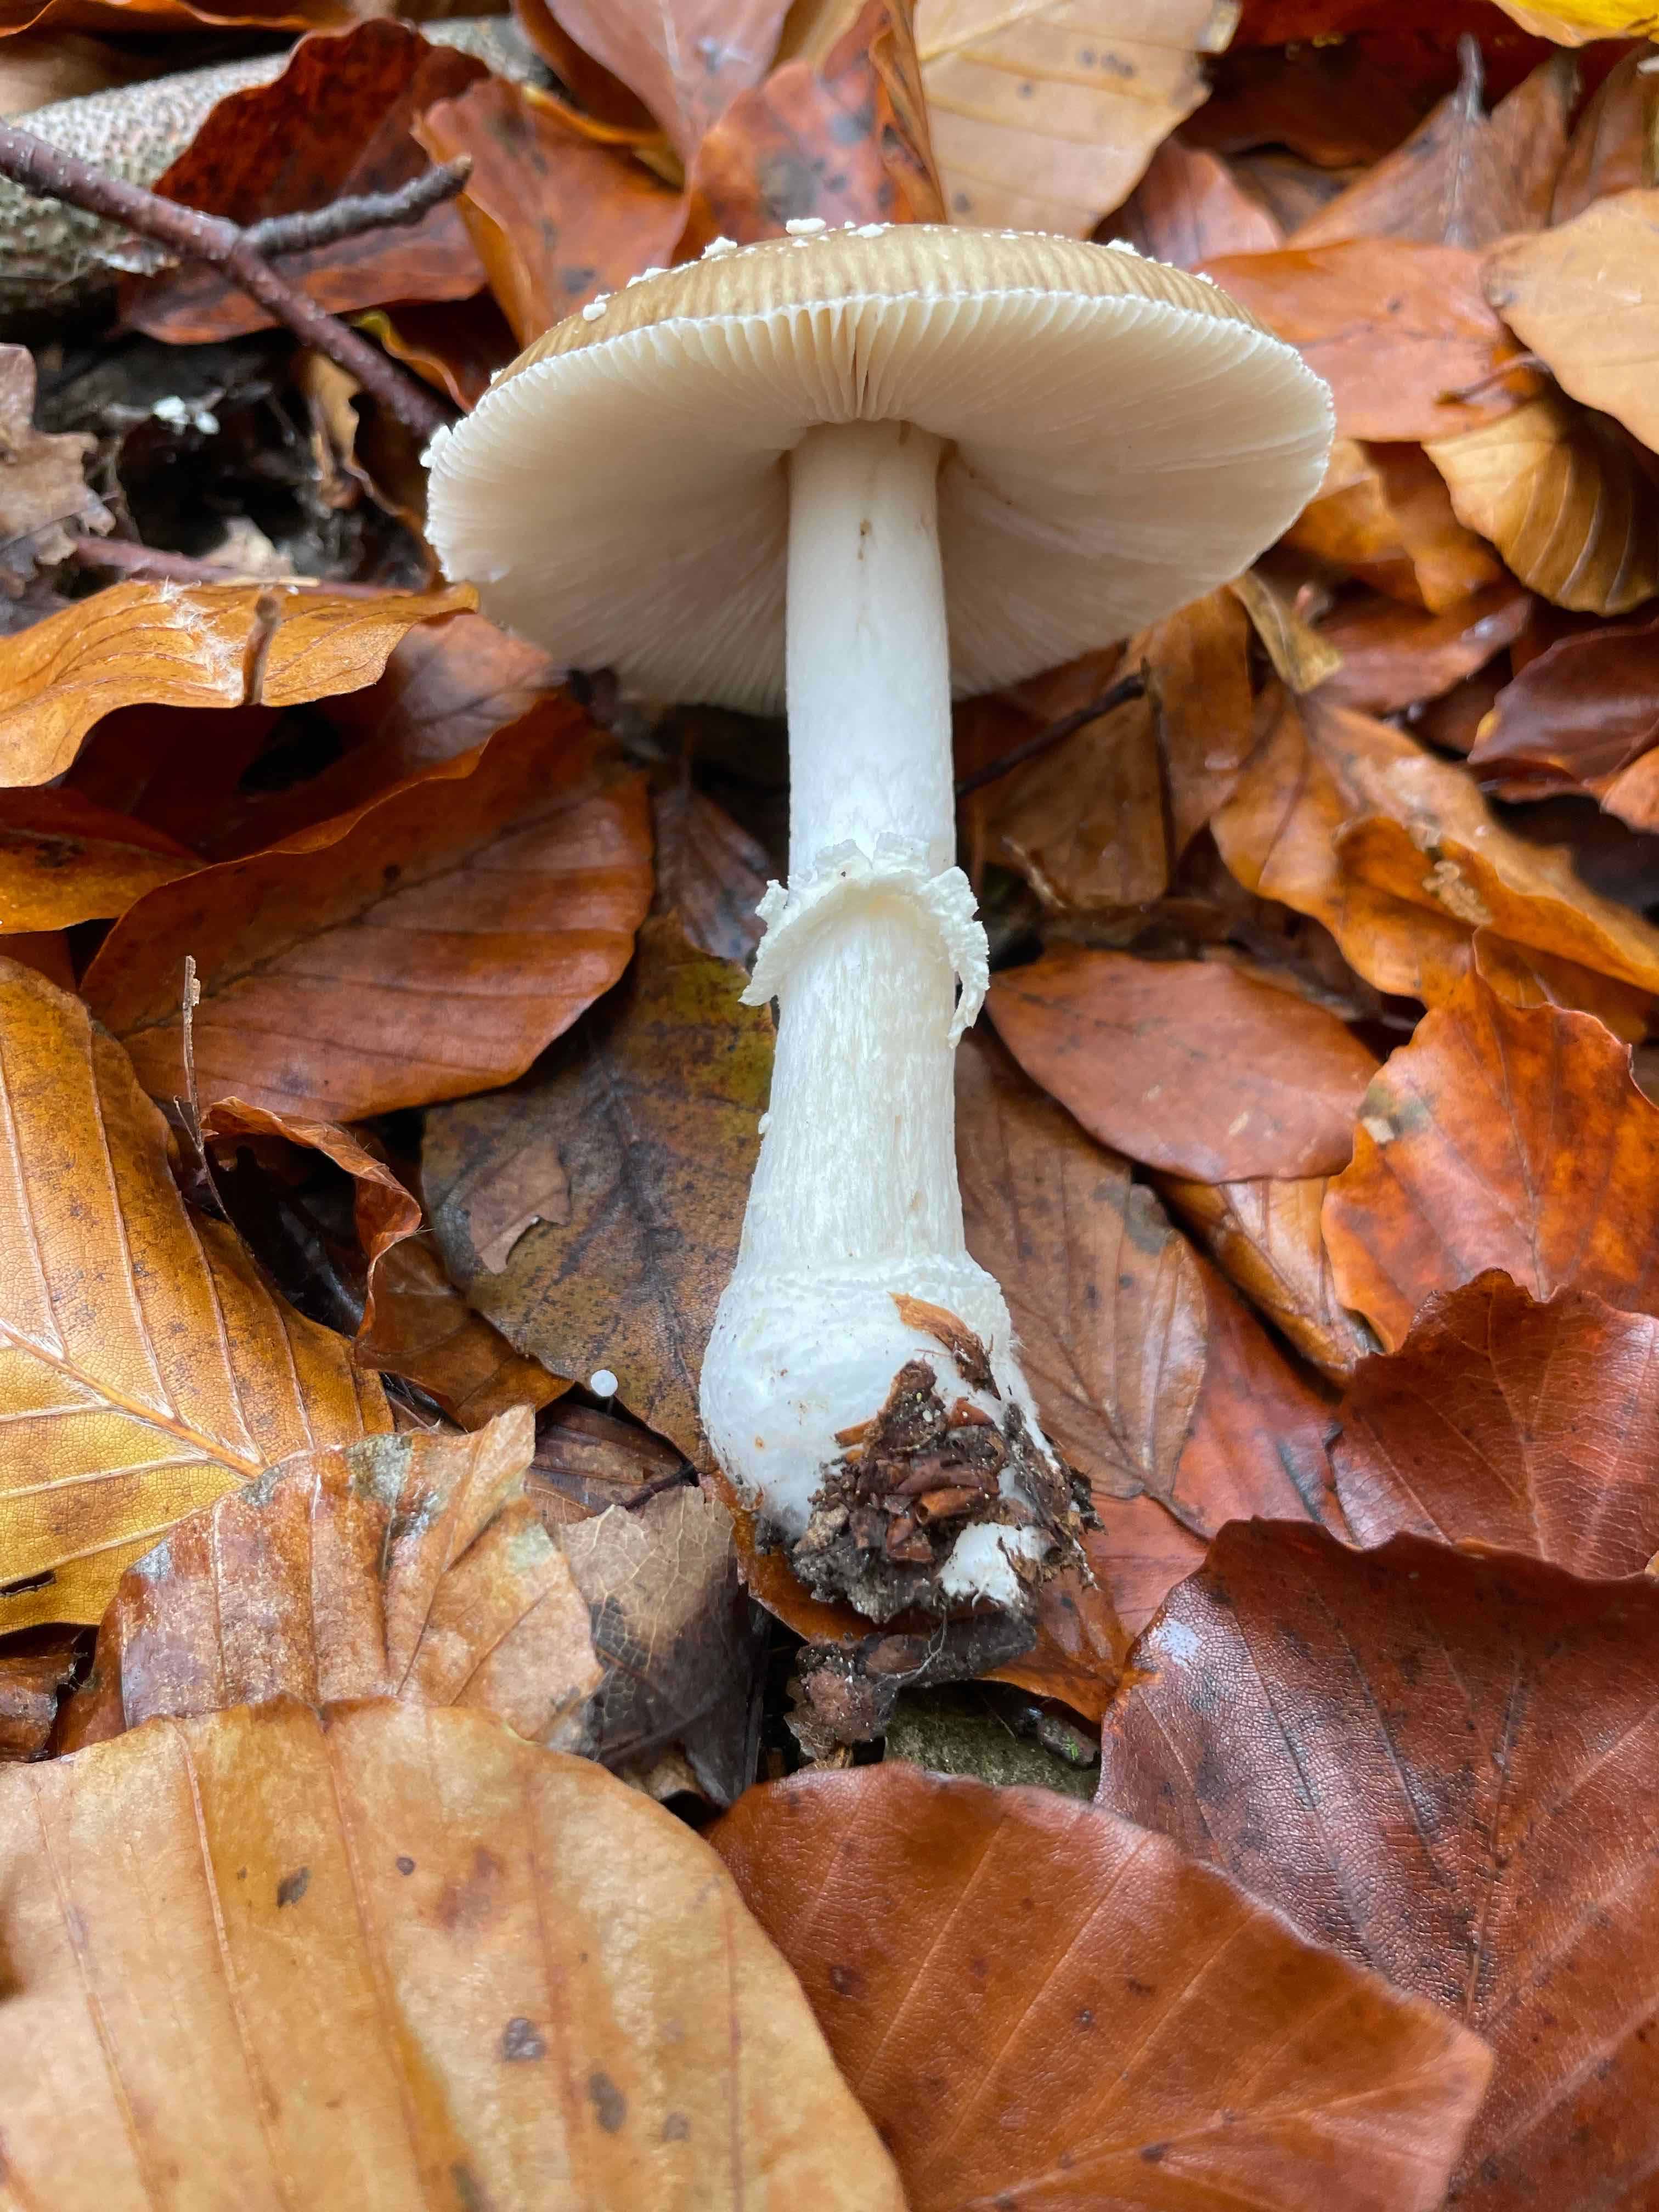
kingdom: Fungi
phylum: Basidiomycota
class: Agaricomycetes
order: Agaricales
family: Amanitaceae
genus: Amanita
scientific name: Amanita pantherina
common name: panter-fluesvamp
